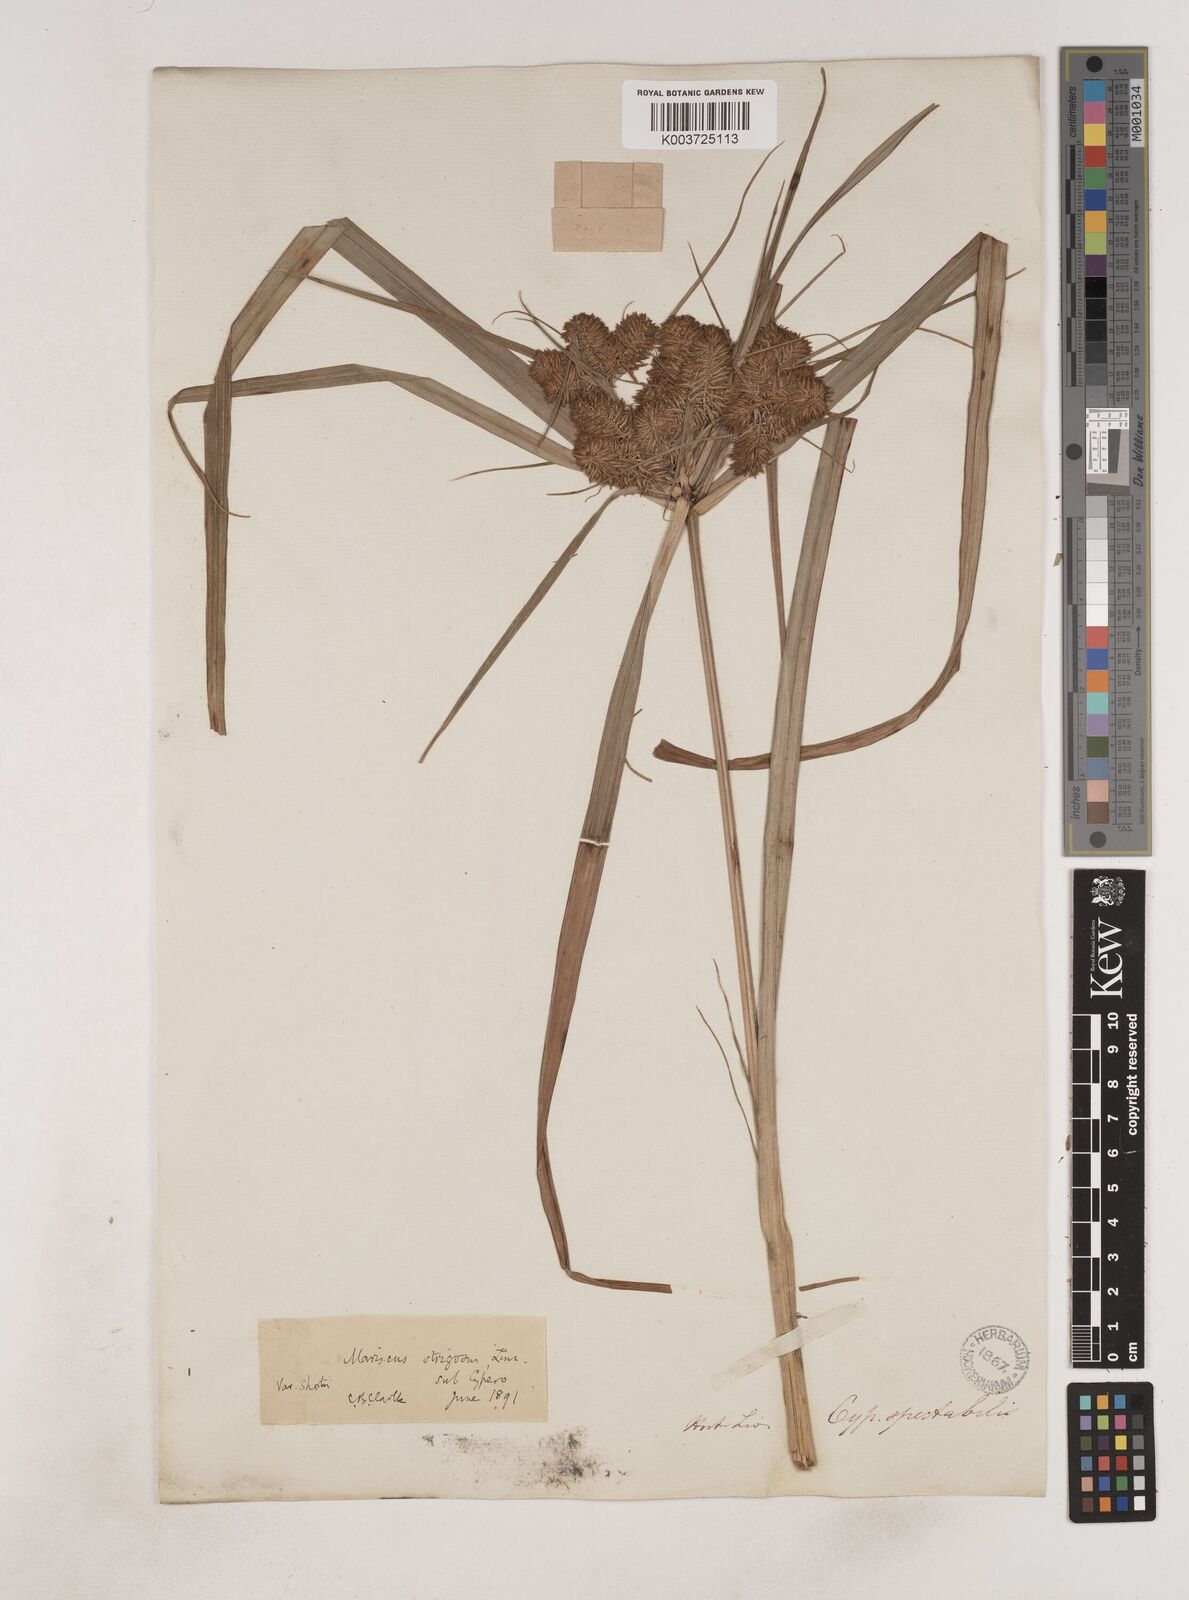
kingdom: Plantae
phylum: Tracheophyta
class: Liliopsida
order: Poales
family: Cyperaceae
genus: Cyperus
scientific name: Cyperus strigosus
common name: False nutsedge
